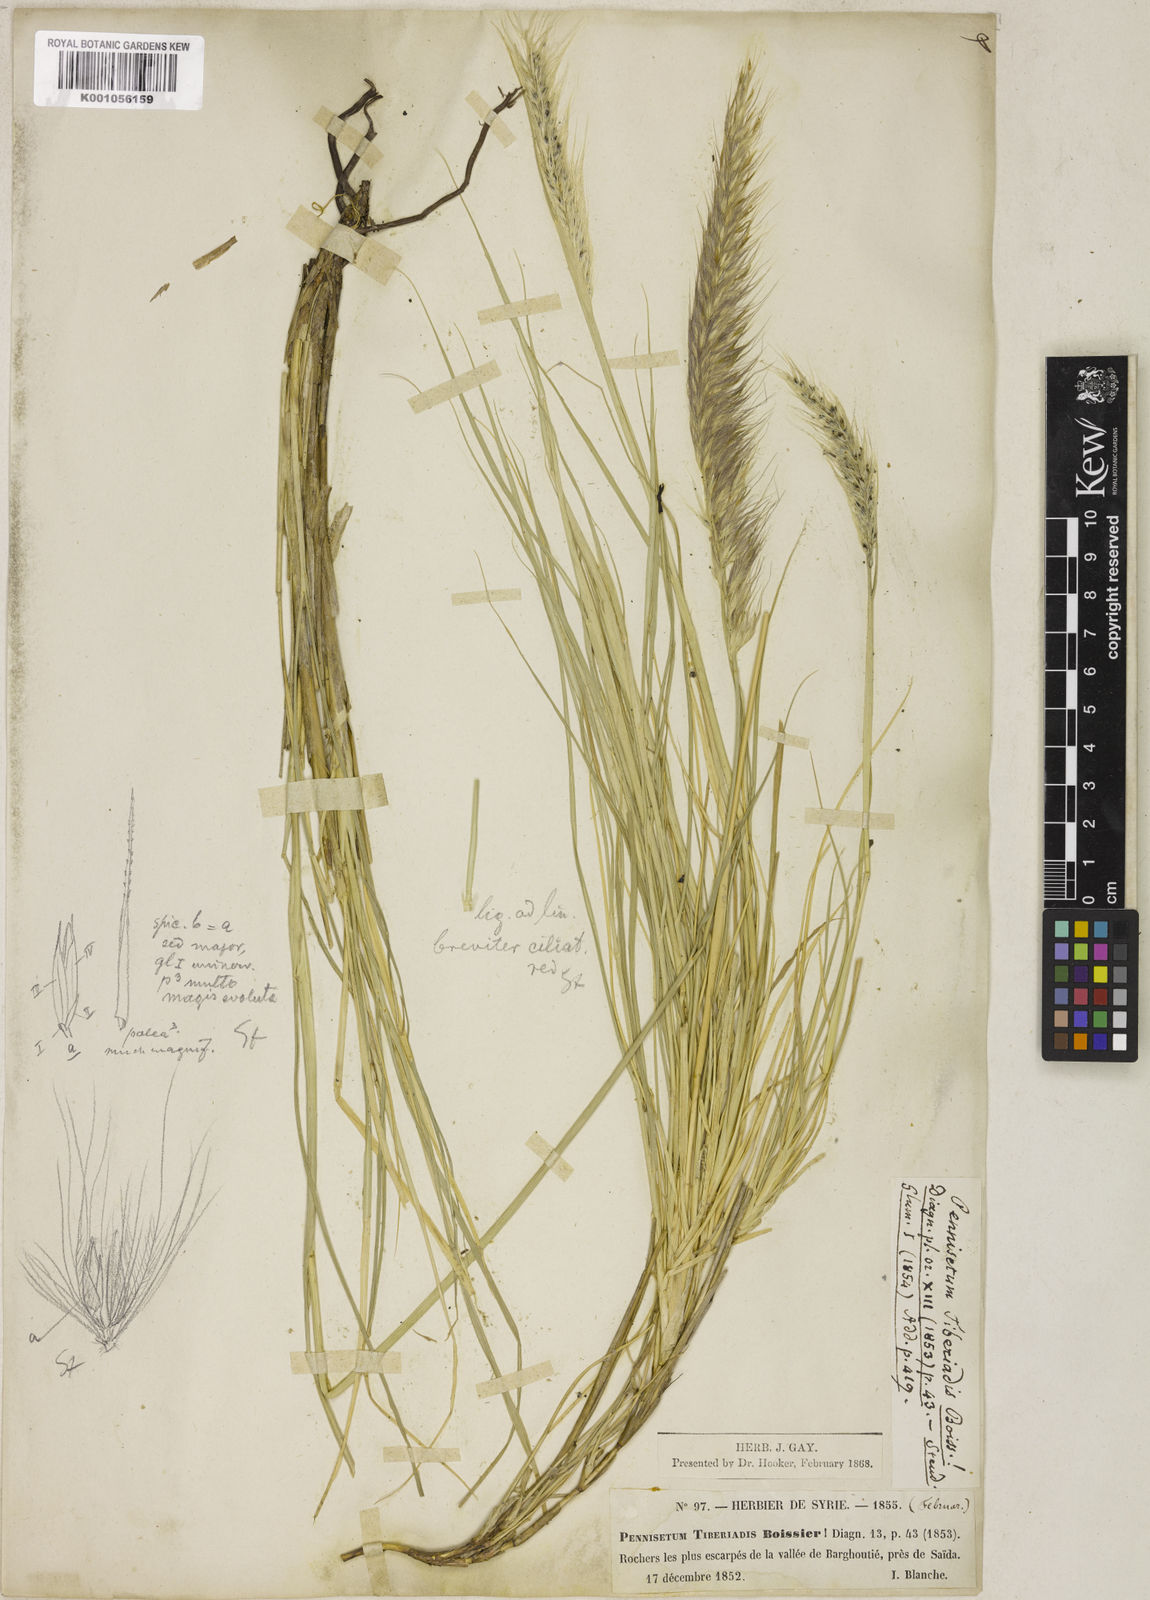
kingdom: Plantae
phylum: Tracheophyta
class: Liliopsida
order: Poales
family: Poaceae
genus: Cenchrus
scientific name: Cenchrus setaceus
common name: Crimson fountaingrass
